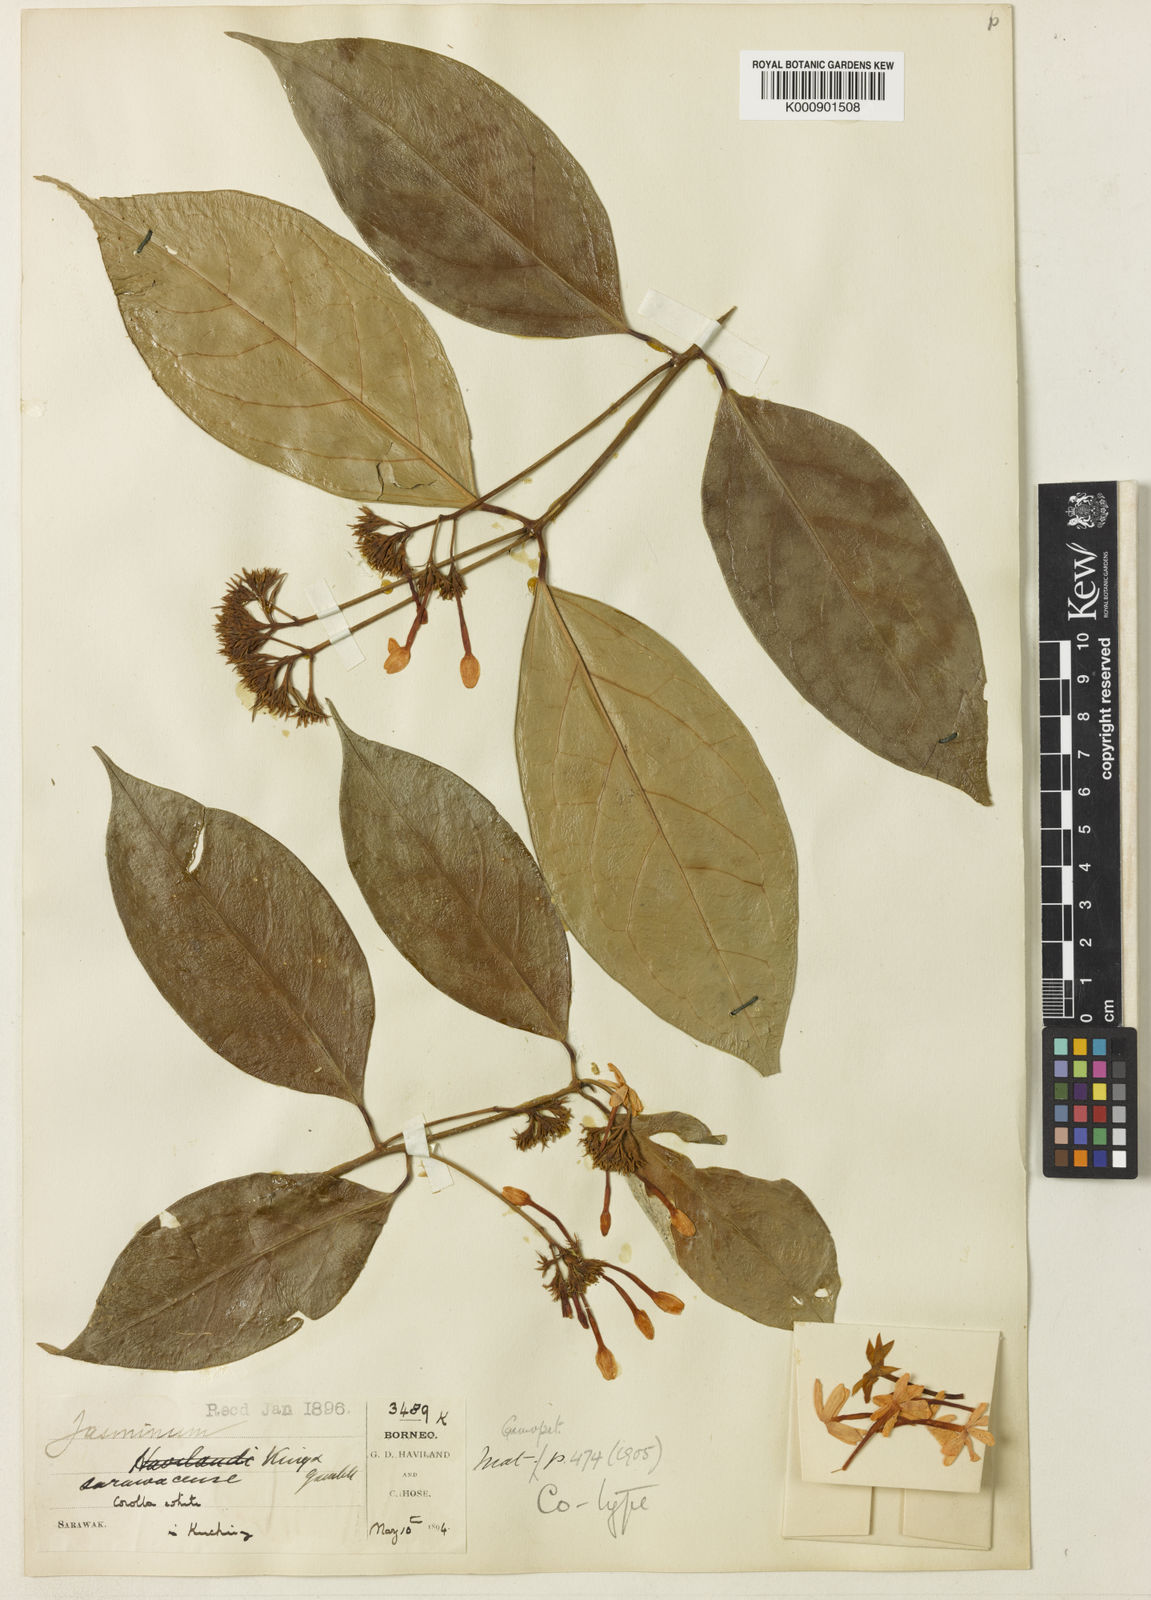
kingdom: Plantae
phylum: Tracheophyta
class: Magnoliopsida
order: Lamiales
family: Oleaceae
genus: Jasminum
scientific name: Jasminum sarawacense
